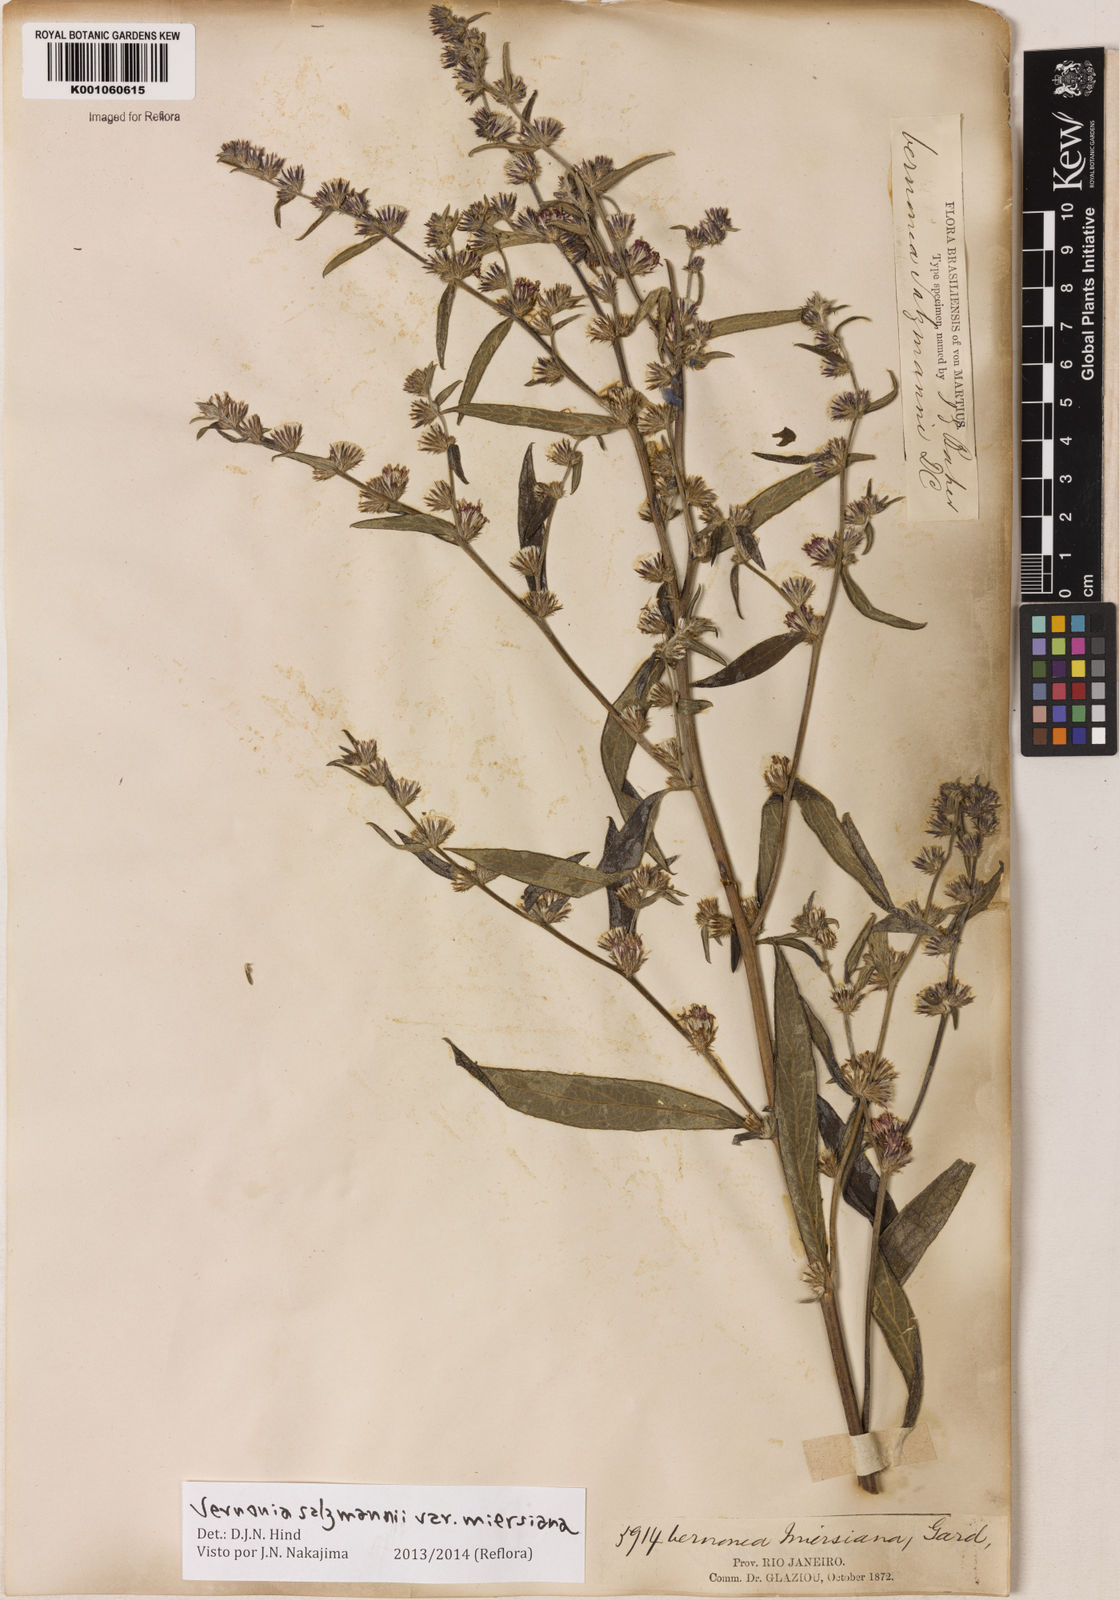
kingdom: Plantae
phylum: Tracheophyta
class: Magnoliopsida
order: Asterales
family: Asteraceae
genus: Lepidaploa
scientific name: Lepidaploa salzmannii
